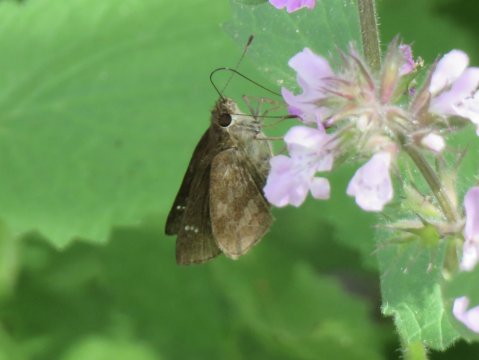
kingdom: Animalia
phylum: Arthropoda
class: Insecta
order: Lepidoptera
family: Hesperiidae
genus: Cymaenes
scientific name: Cymaenes odilia
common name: Fawn-spotted Skipper
